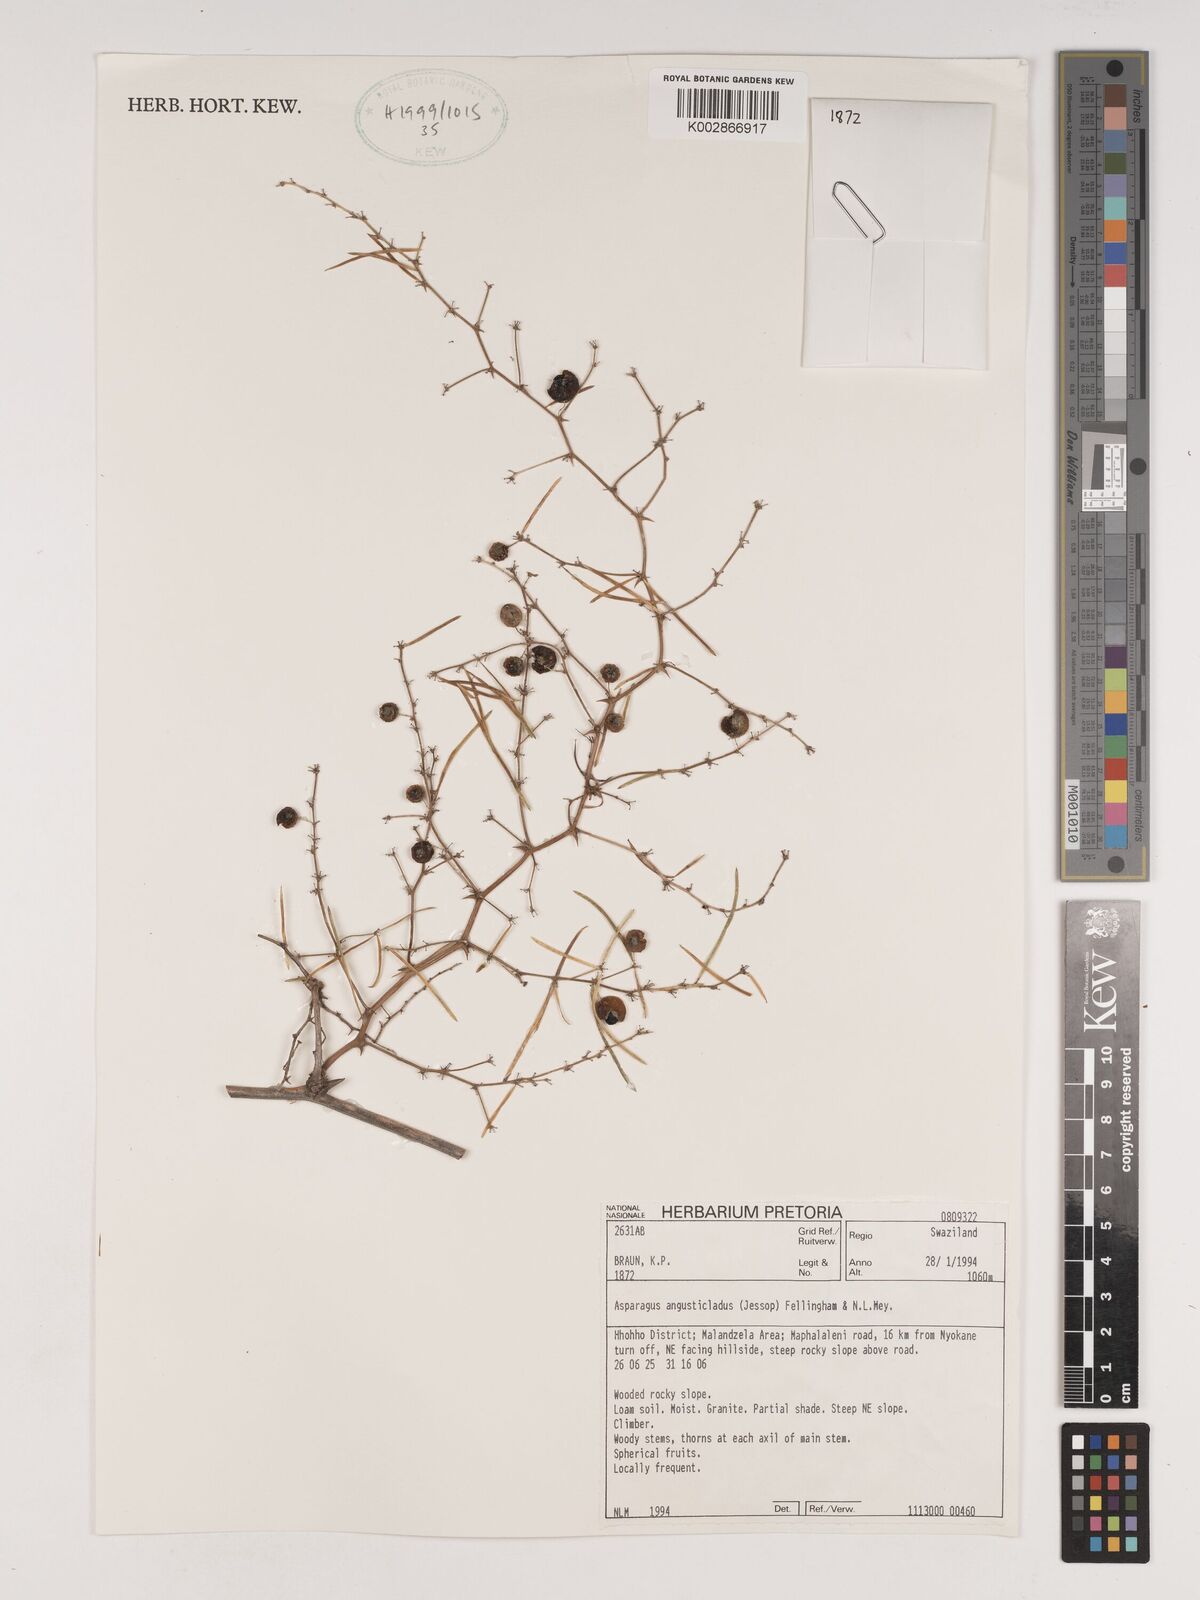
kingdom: Plantae
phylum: Tracheophyta
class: Liliopsida
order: Asparagales
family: Asparagaceae
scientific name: Asparagaceae
